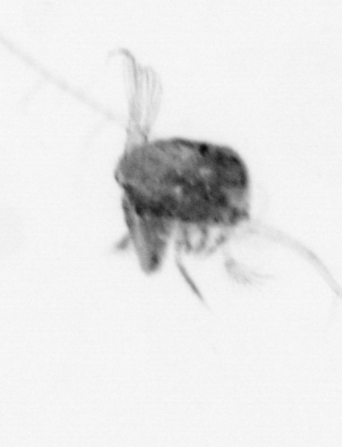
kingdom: Animalia
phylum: Arthropoda
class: Copepoda
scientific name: Copepoda
